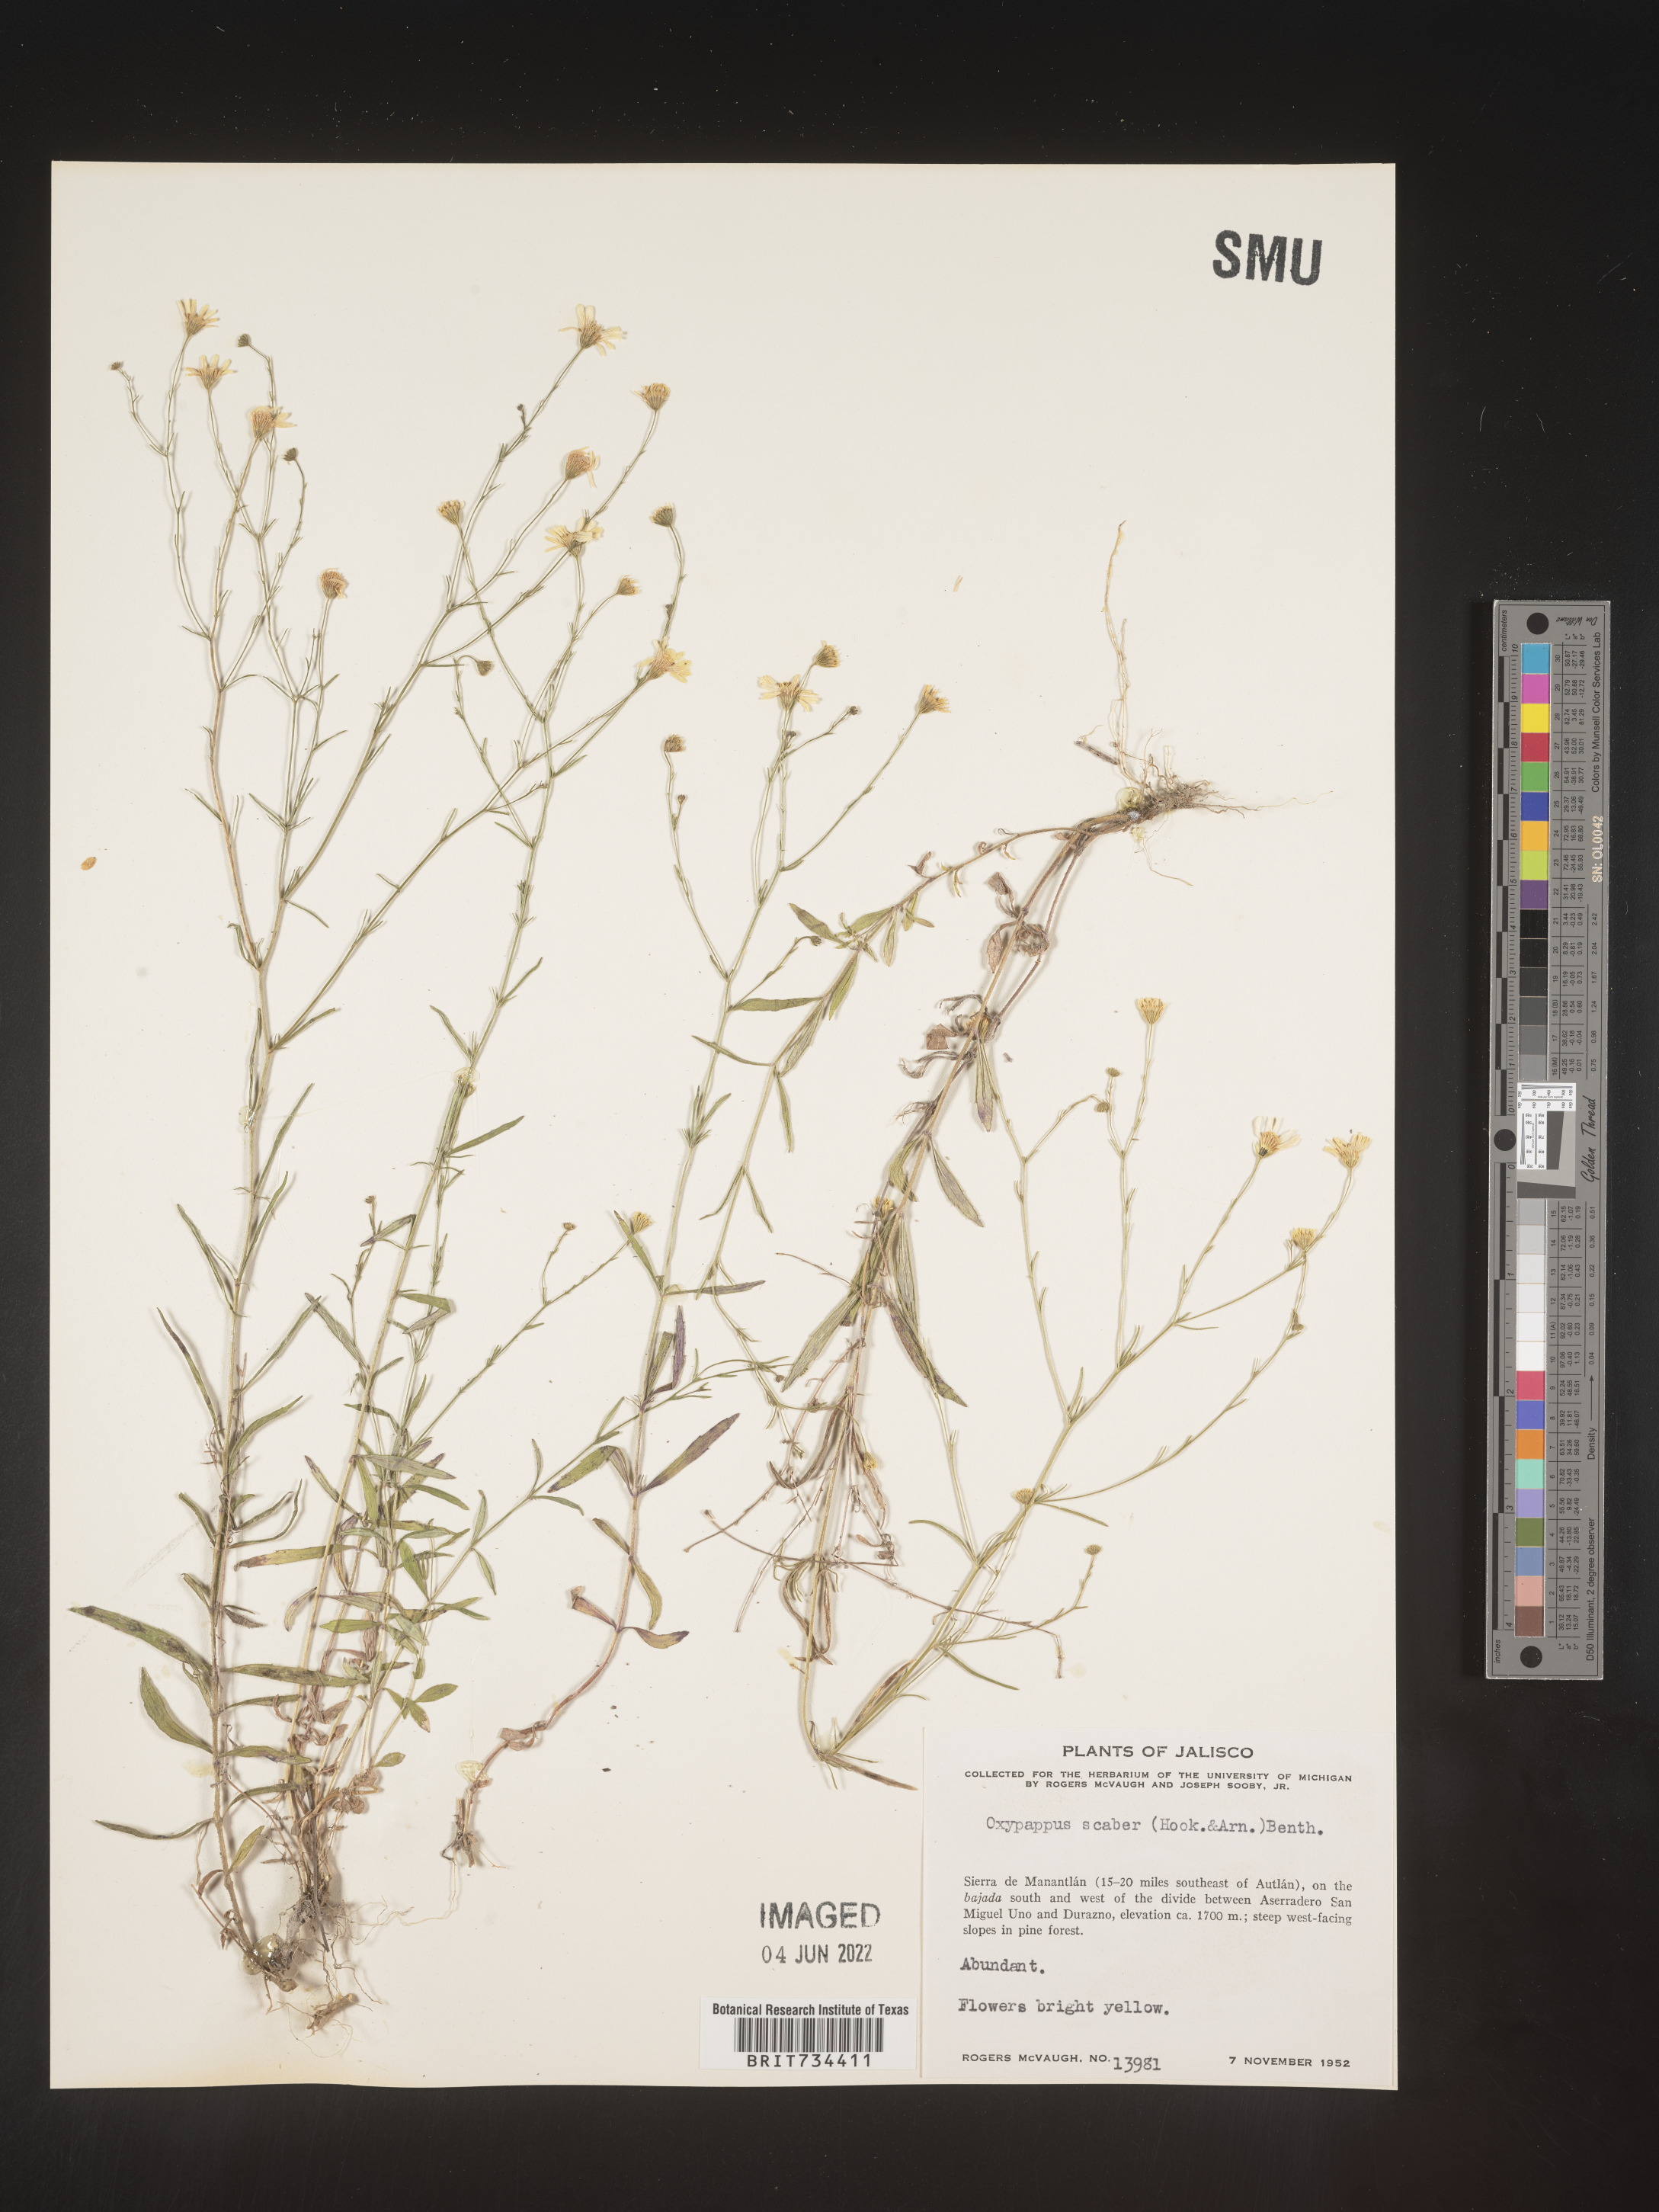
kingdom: Plantae
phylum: Tracheophyta
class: Magnoliopsida
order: Asterales
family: Asteraceae
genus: Oxypappus
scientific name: Oxypappus
